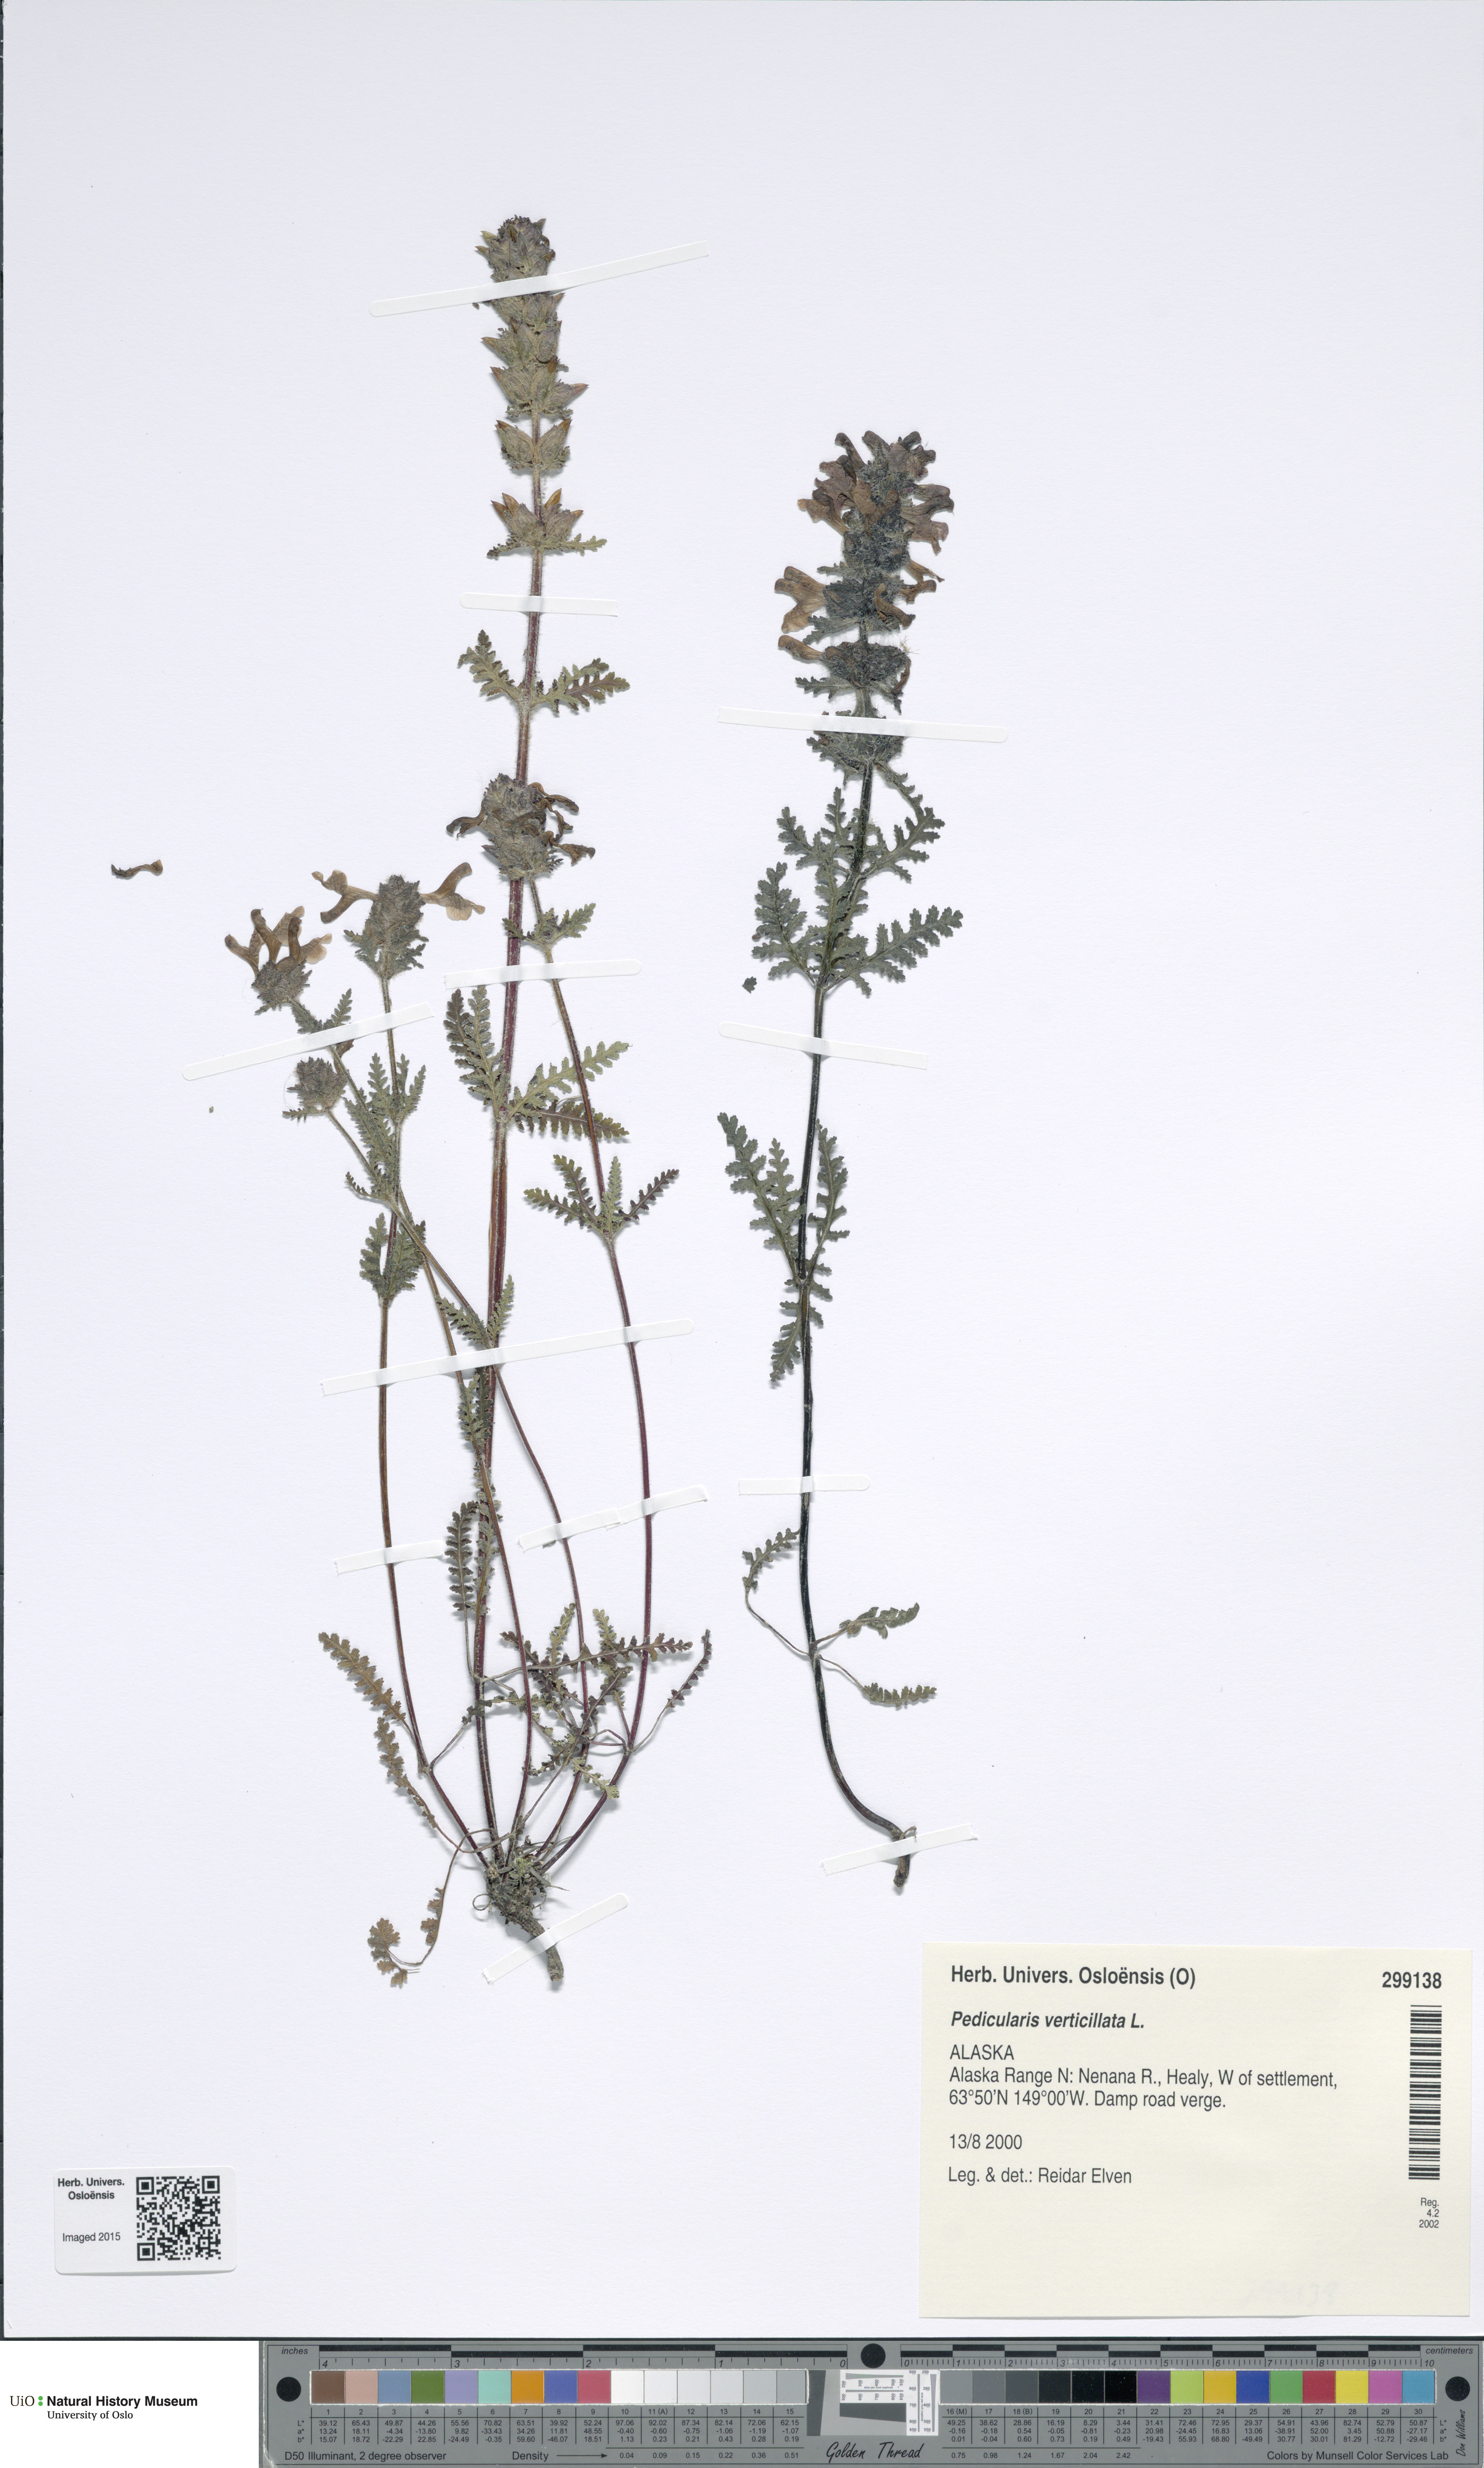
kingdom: Plantae
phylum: Tracheophyta
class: Magnoliopsida
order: Lamiales
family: Orobanchaceae
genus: Pedicularis
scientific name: Pedicularis verticillata
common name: Whorled lousewort
